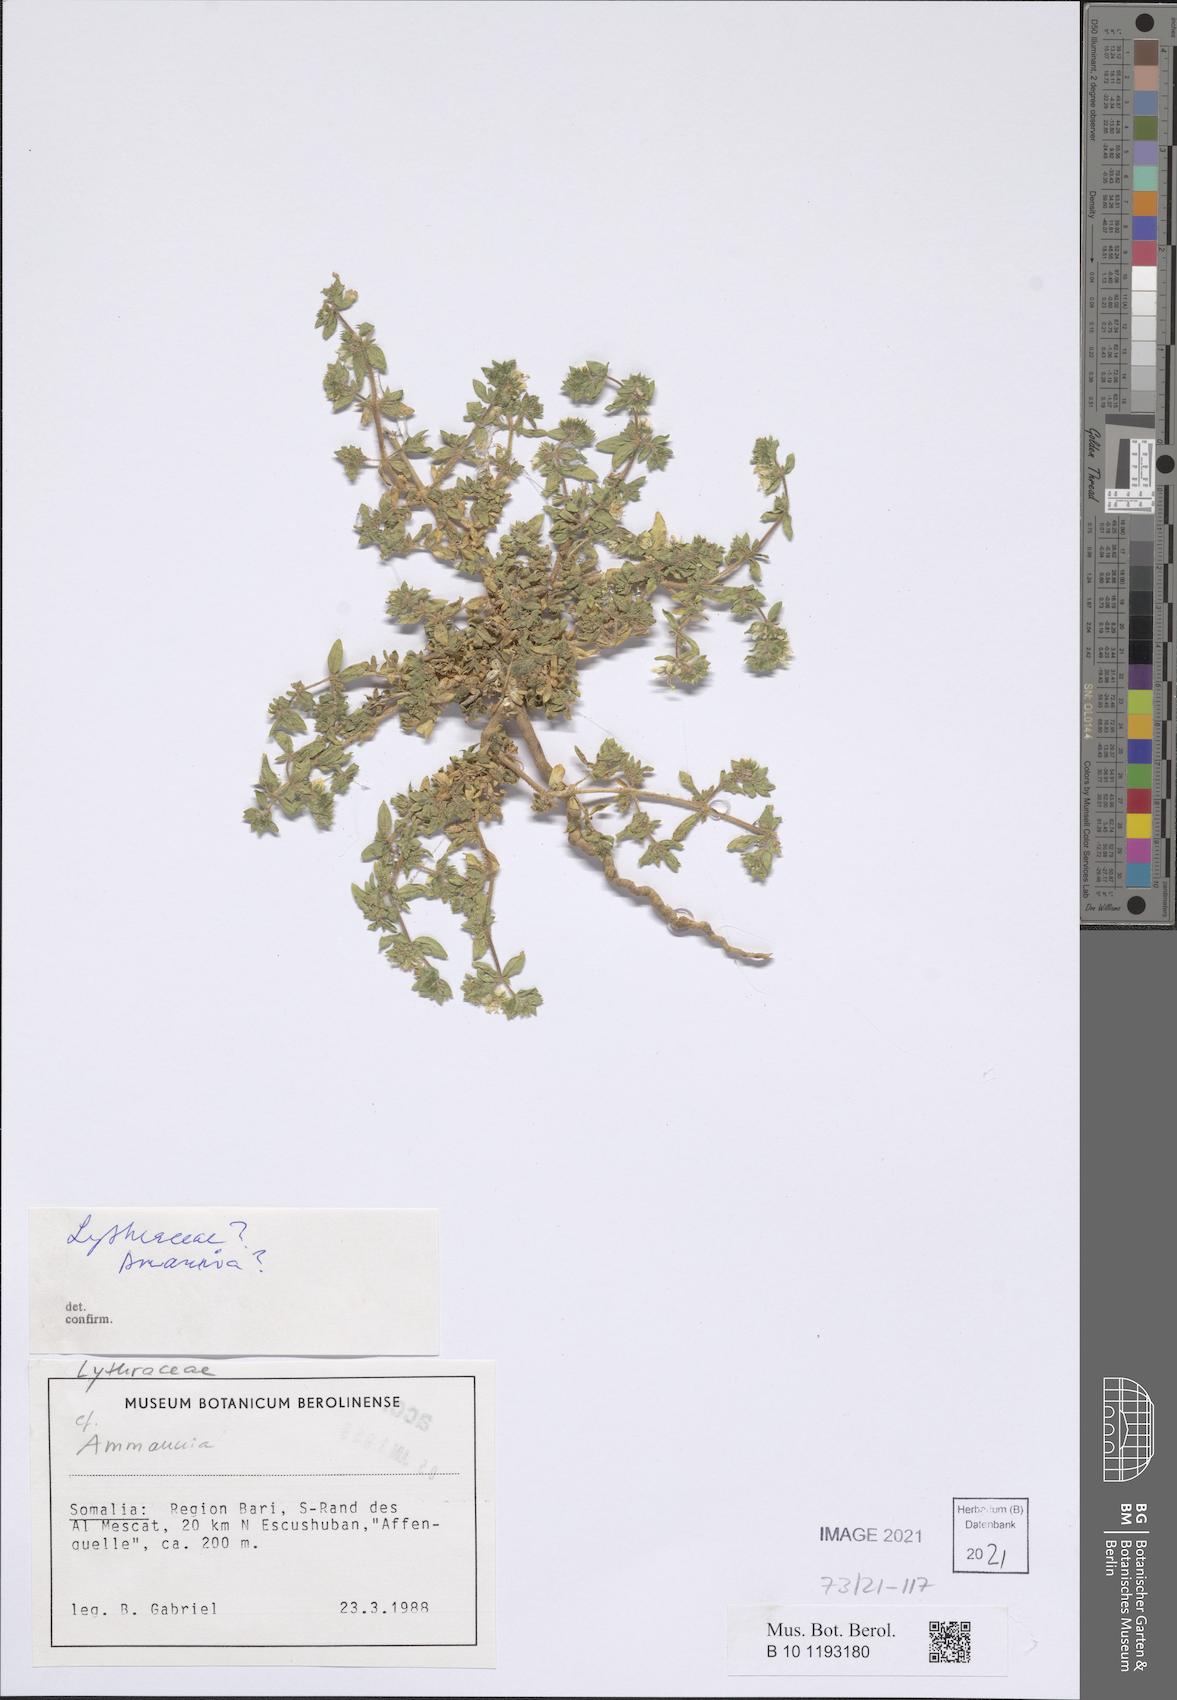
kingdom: Plantae
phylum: Tracheophyta
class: Magnoliopsida
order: Vahliales
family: Vahliaceae
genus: Vahlia
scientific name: Vahlia somalensis
